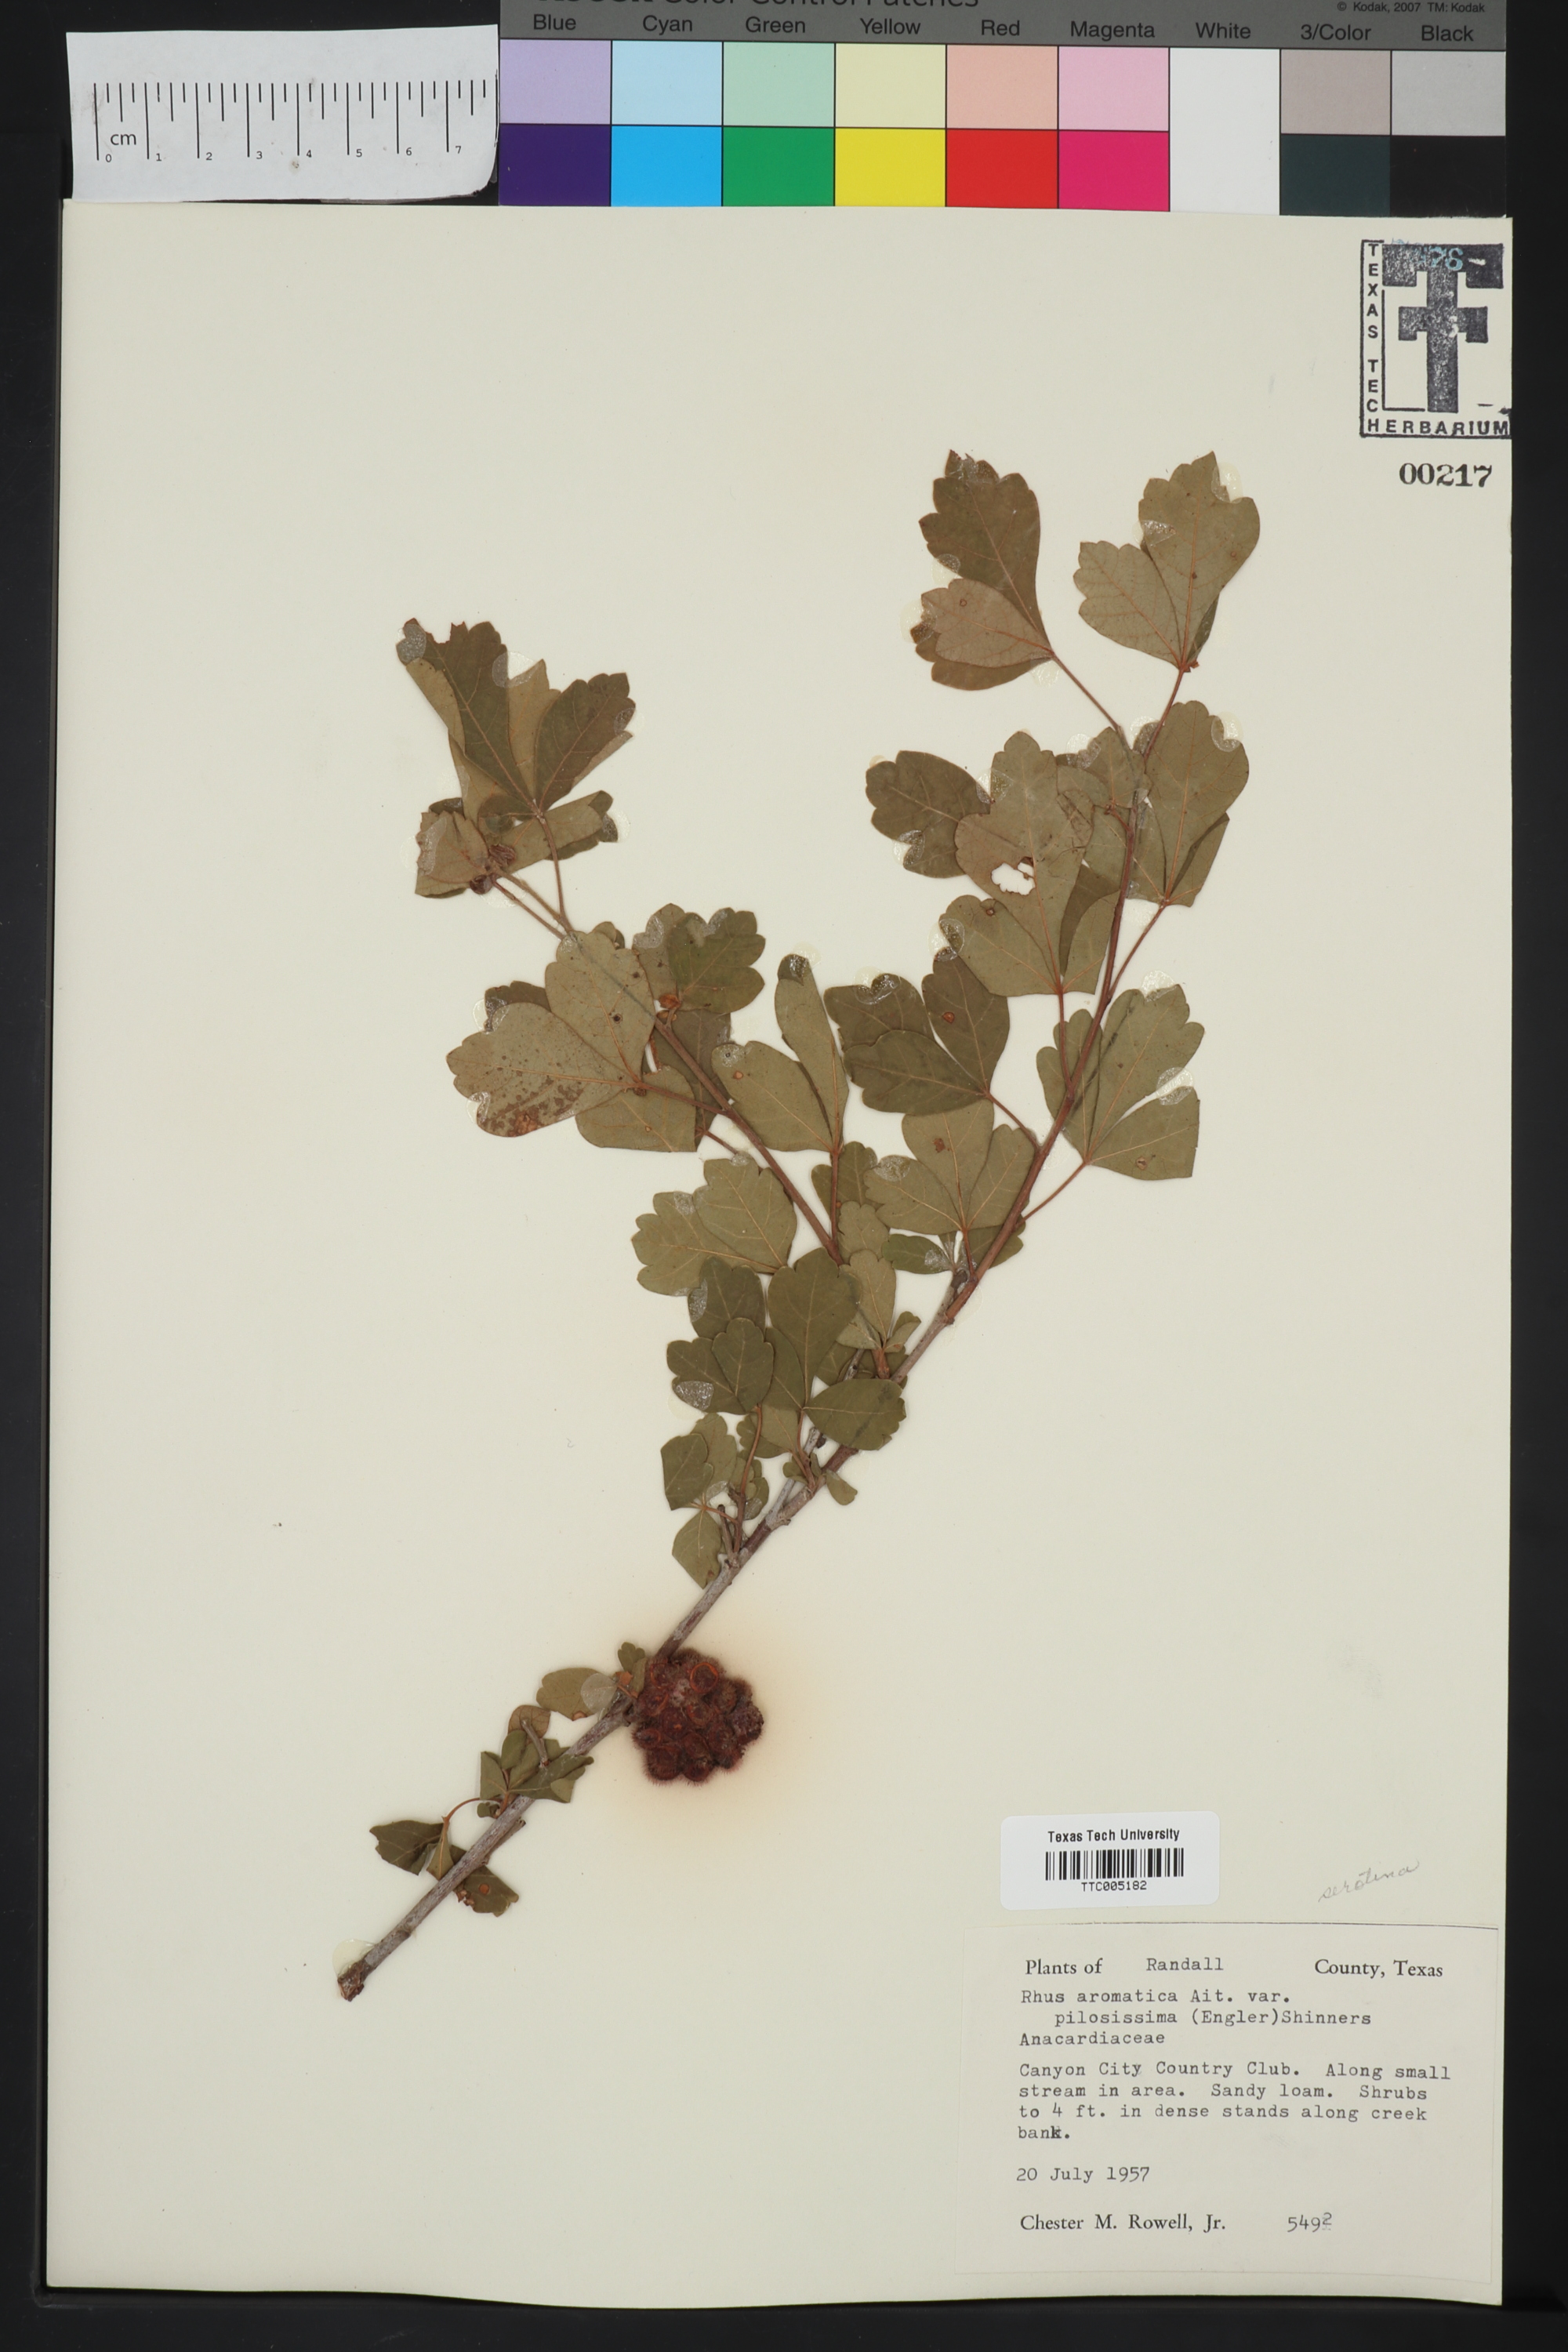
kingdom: Plantae
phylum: Tracheophyta
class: Magnoliopsida
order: Sapindales
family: Anacardiaceae
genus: Rhus
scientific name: Rhus trilobata
